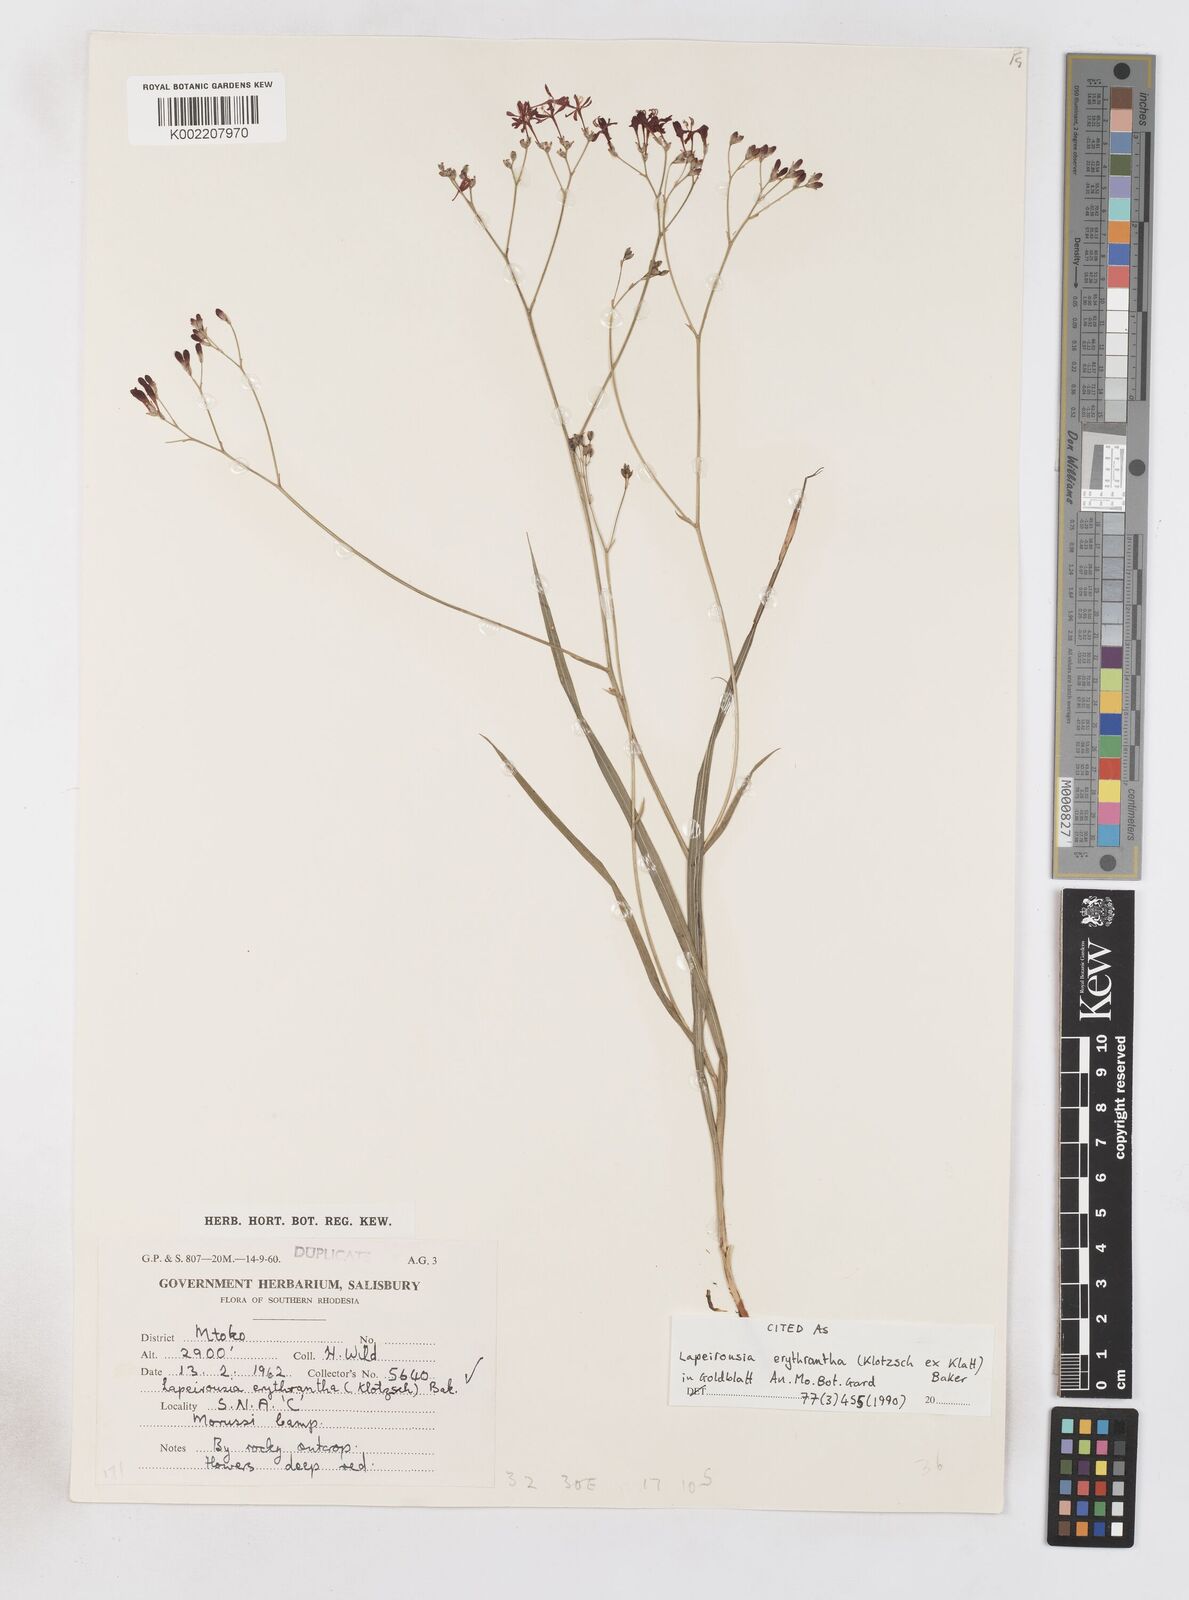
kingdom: Plantae
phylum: Tracheophyta
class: Liliopsida
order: Asparagales
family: Iridaceae
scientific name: Iridaceae
